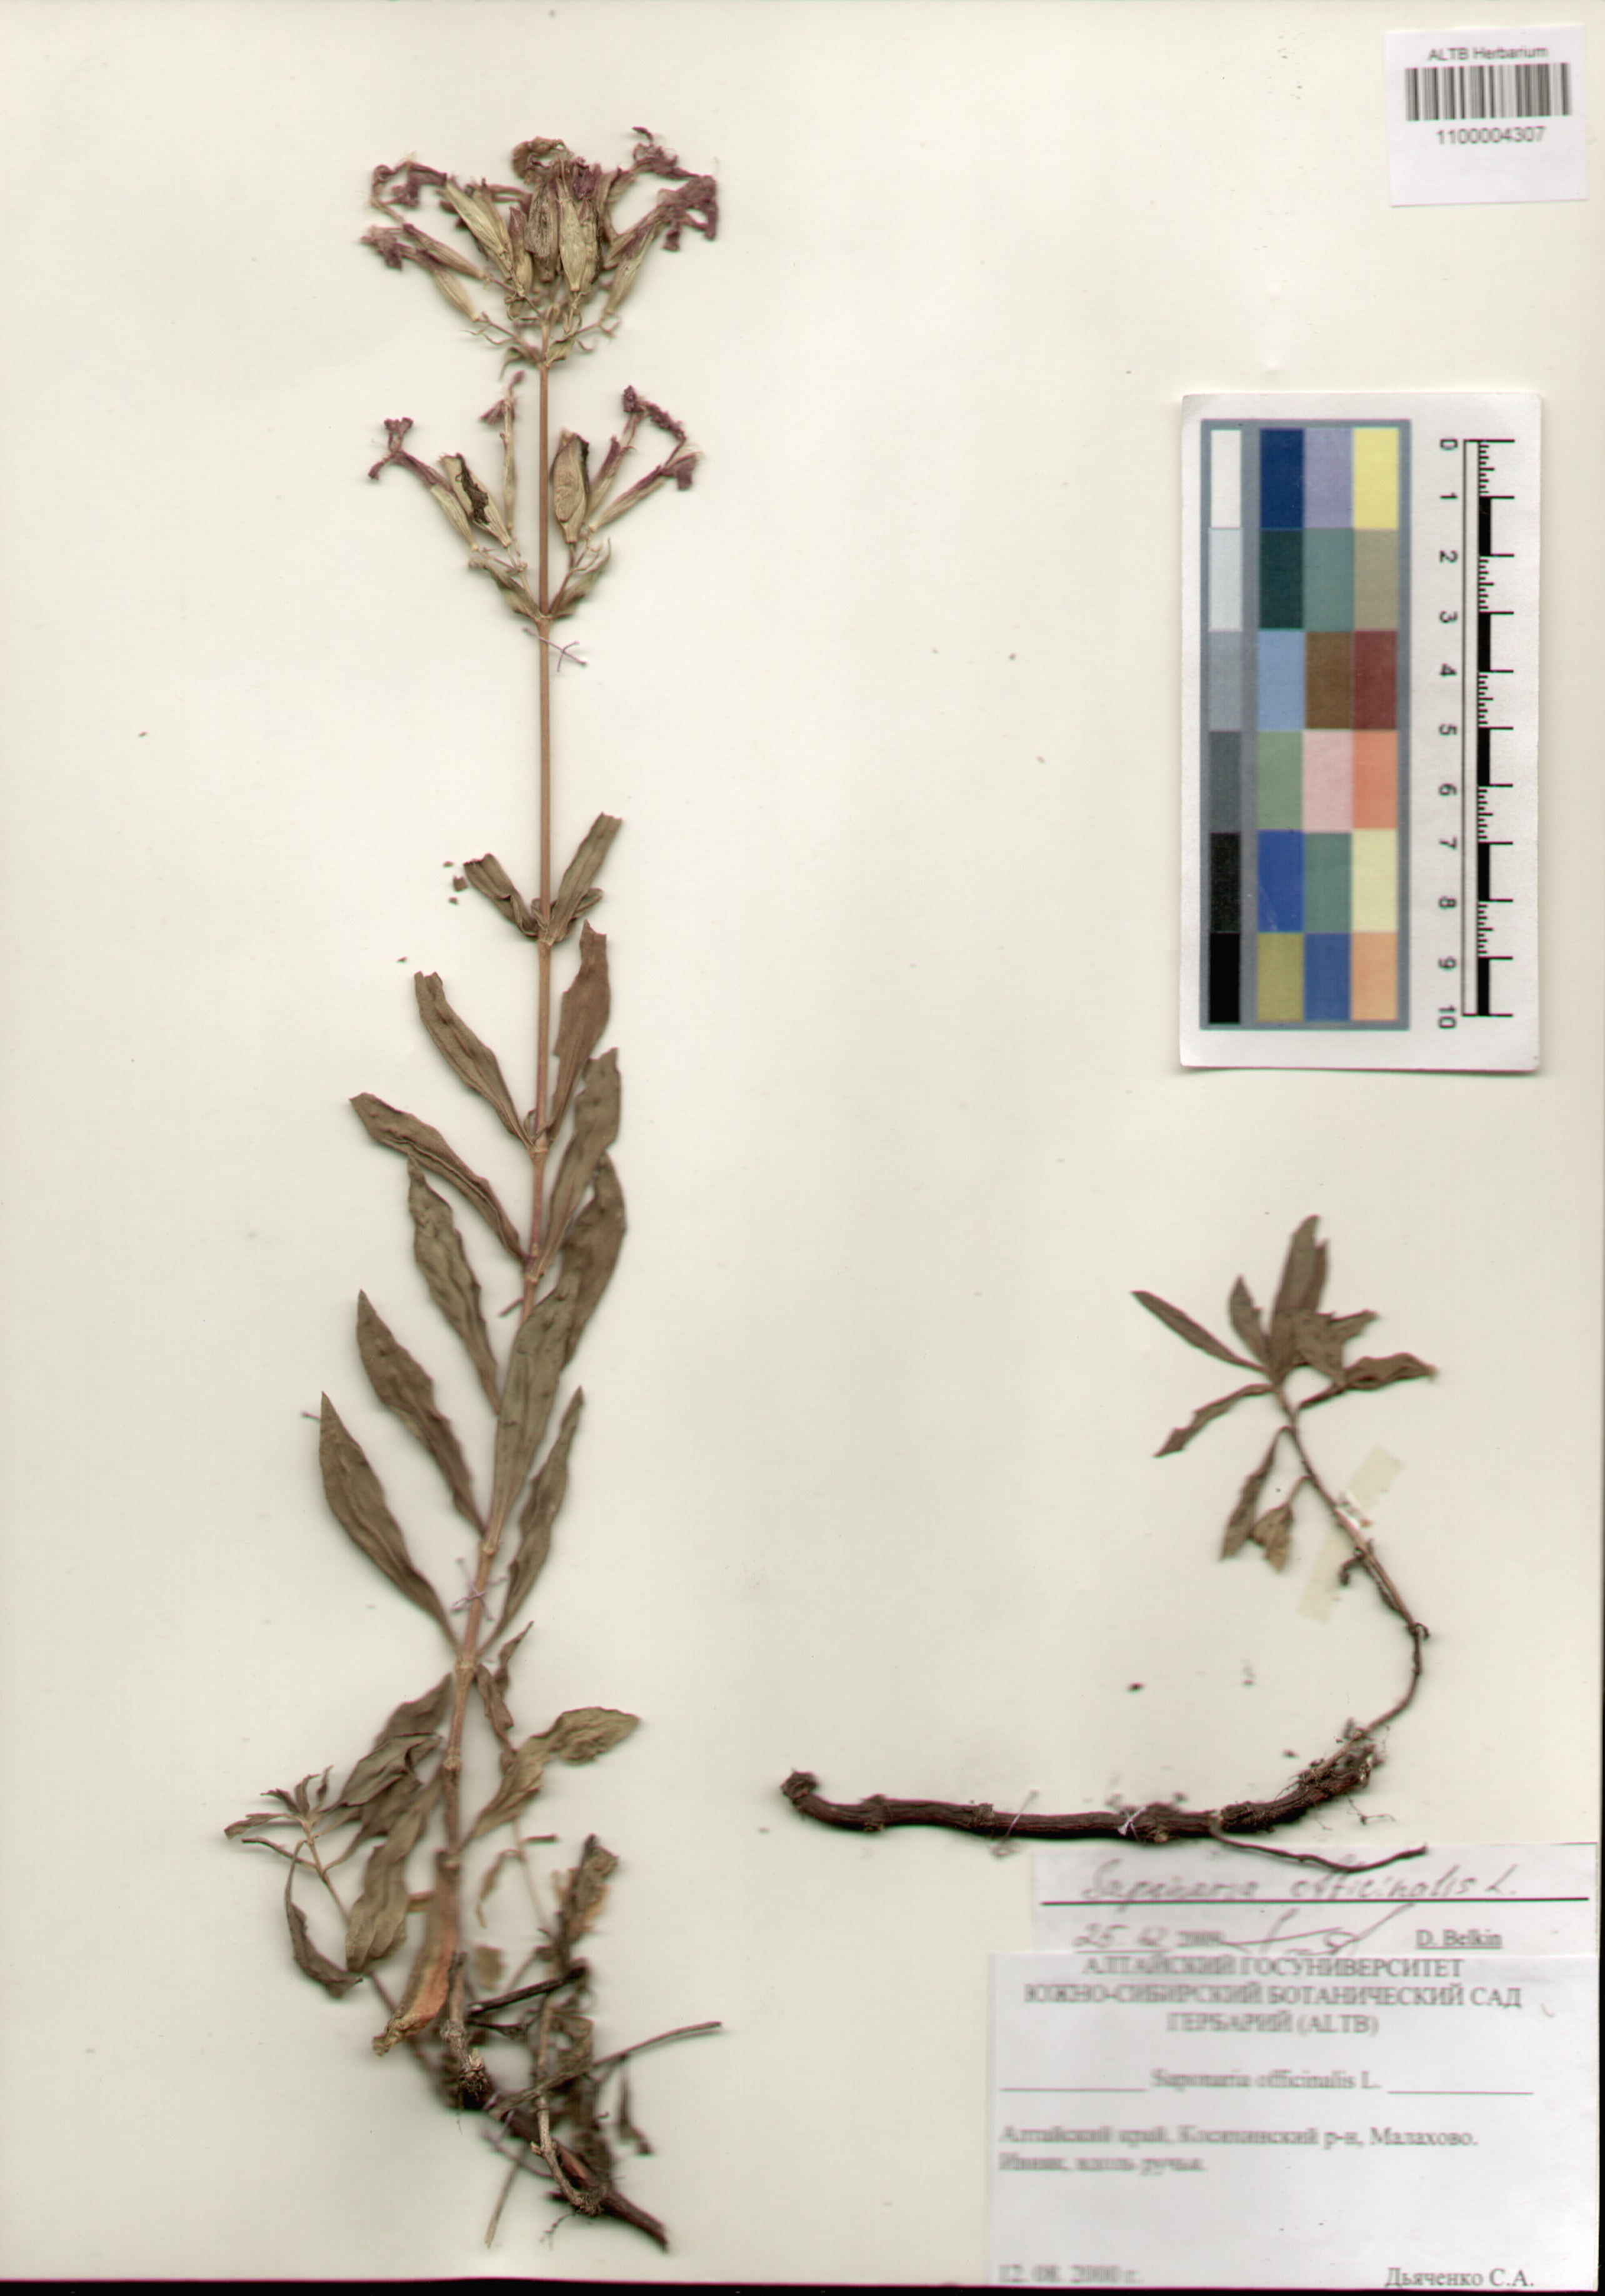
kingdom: Plantae
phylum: Tracheophyta
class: Magnoliopsida
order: Caryophyllales
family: Caryophyllaceae
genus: Saponaria
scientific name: Saponaria officinalis
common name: Soapwort
